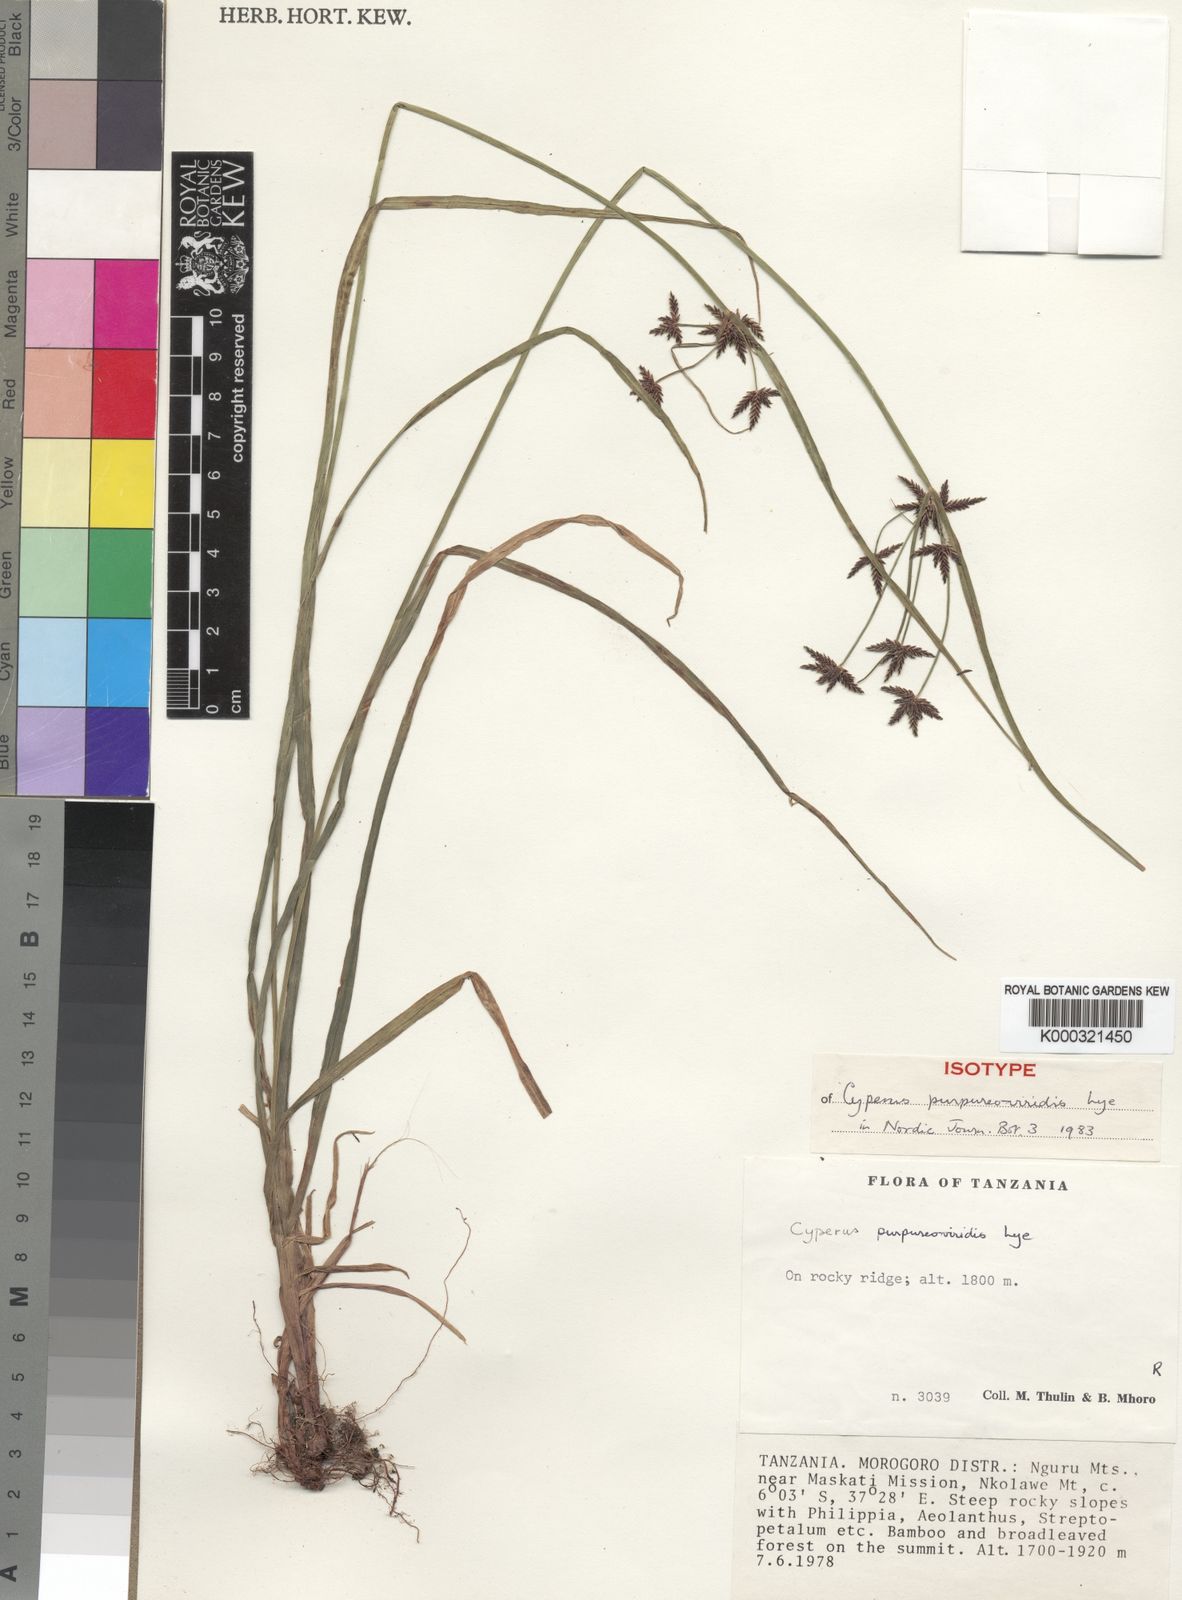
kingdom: Plantae
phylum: Tracheophyta
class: Liliopsida
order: Poales
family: Cyperaceae
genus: Cyperus
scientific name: Cyperus purpureoviridis
